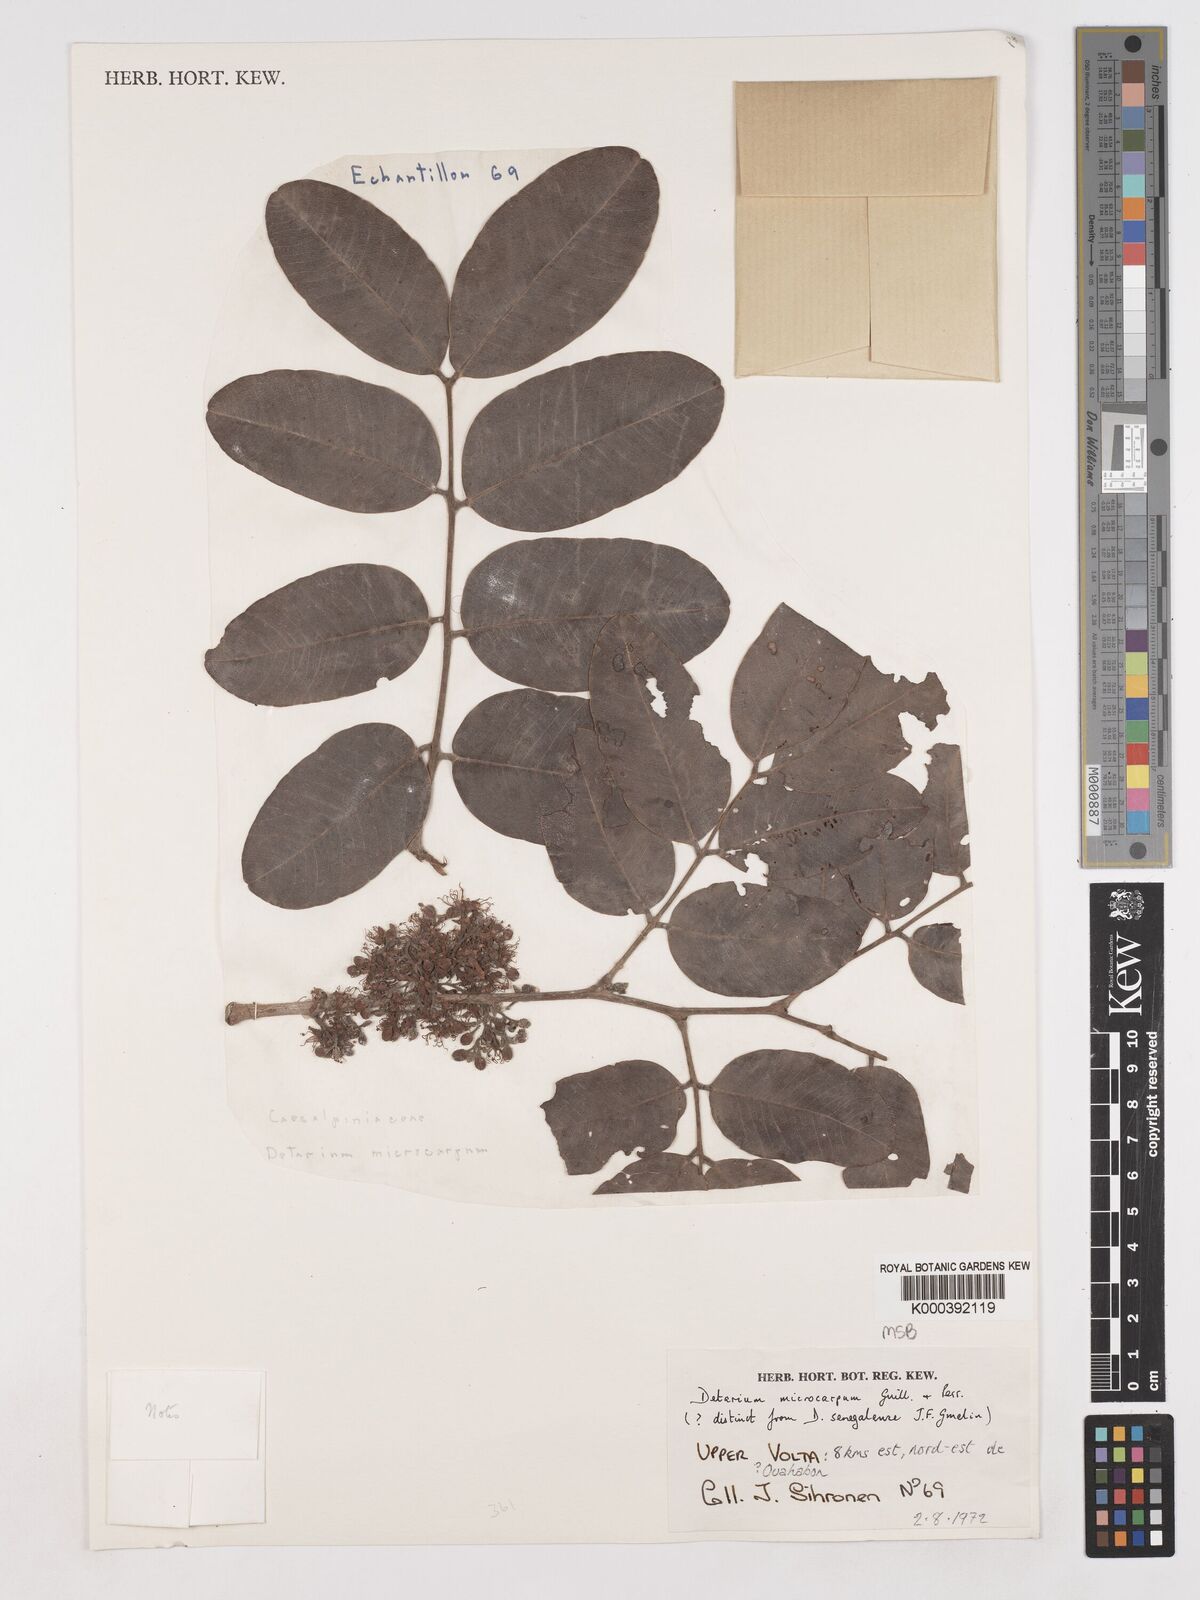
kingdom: Plantae
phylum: Tracheophyta
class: Magnoliopsida
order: Fabales
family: Fabaceae
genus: Detarium
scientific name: Detarium microcarpum
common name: Sweet dattock
